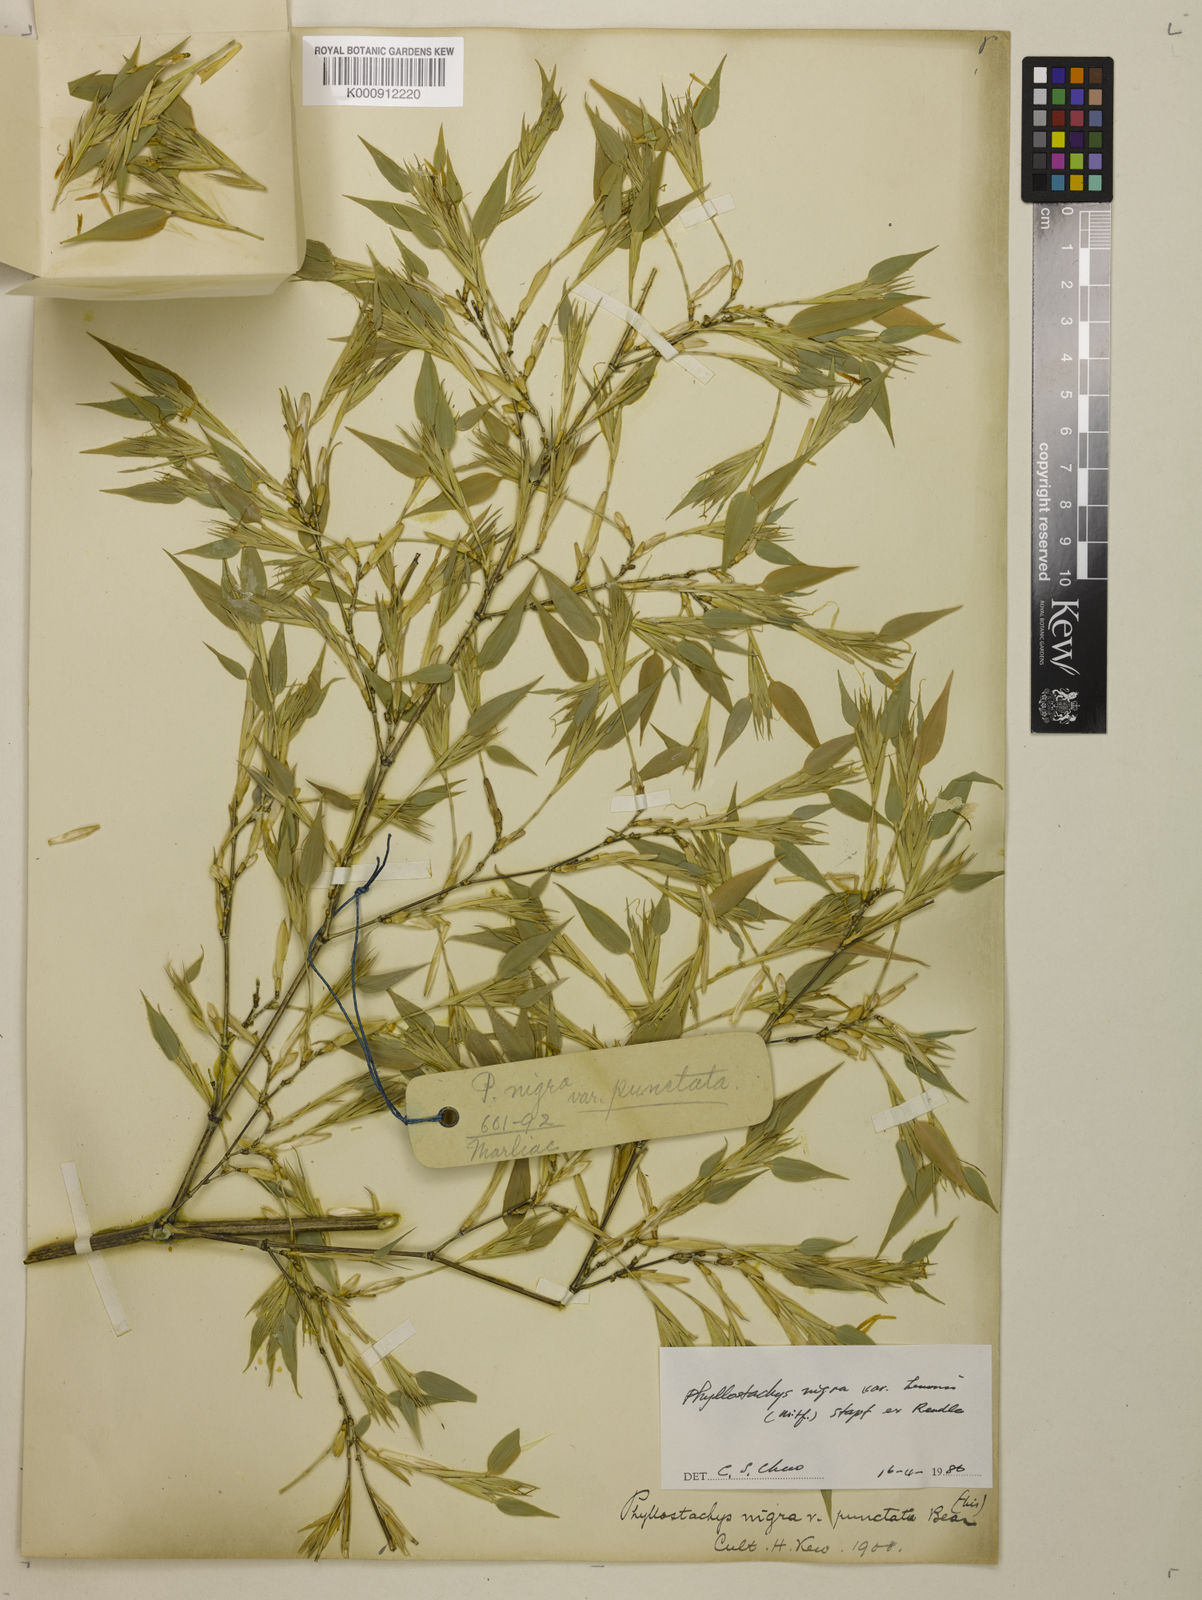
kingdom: Plantae
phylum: Tracheophyta
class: Liliopsida
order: Poales
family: Poaceae
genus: Phyllostachys
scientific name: Phyllostachys nigra
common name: Black bamboo
